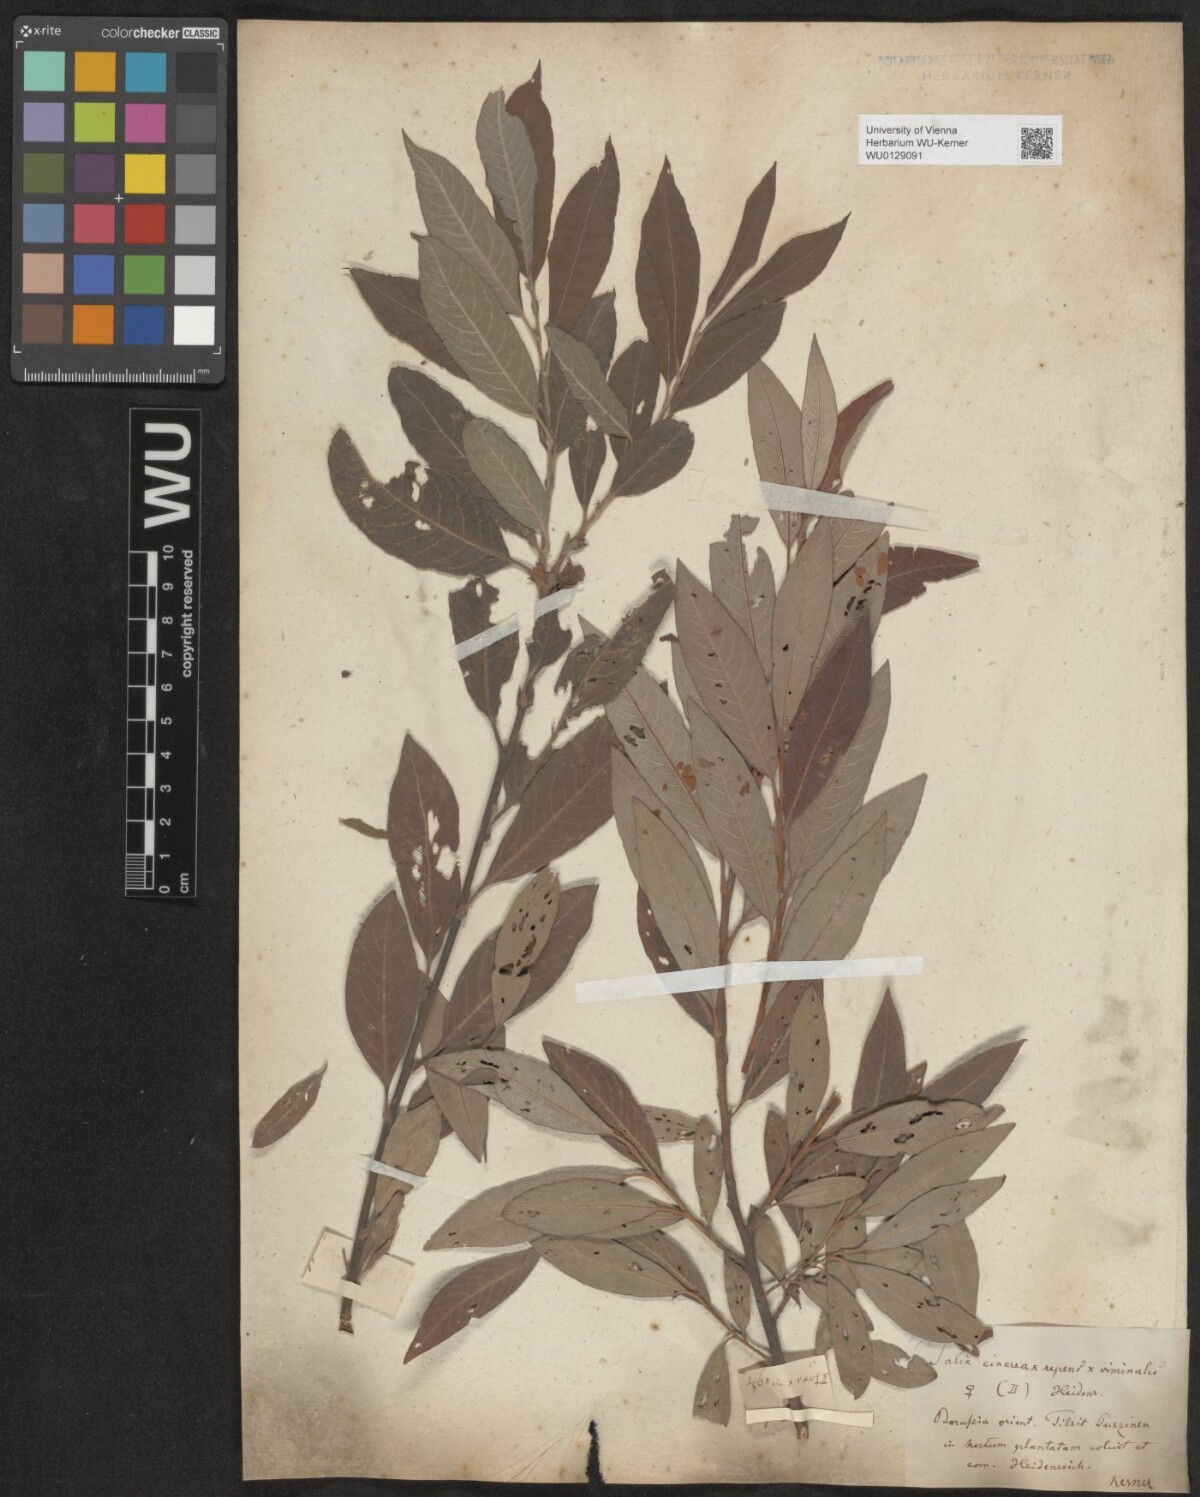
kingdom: Plantae
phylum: Tracheophyta
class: Magnoliopsida
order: Malpighiales
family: Salicaceae
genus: Salix
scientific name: Salix
